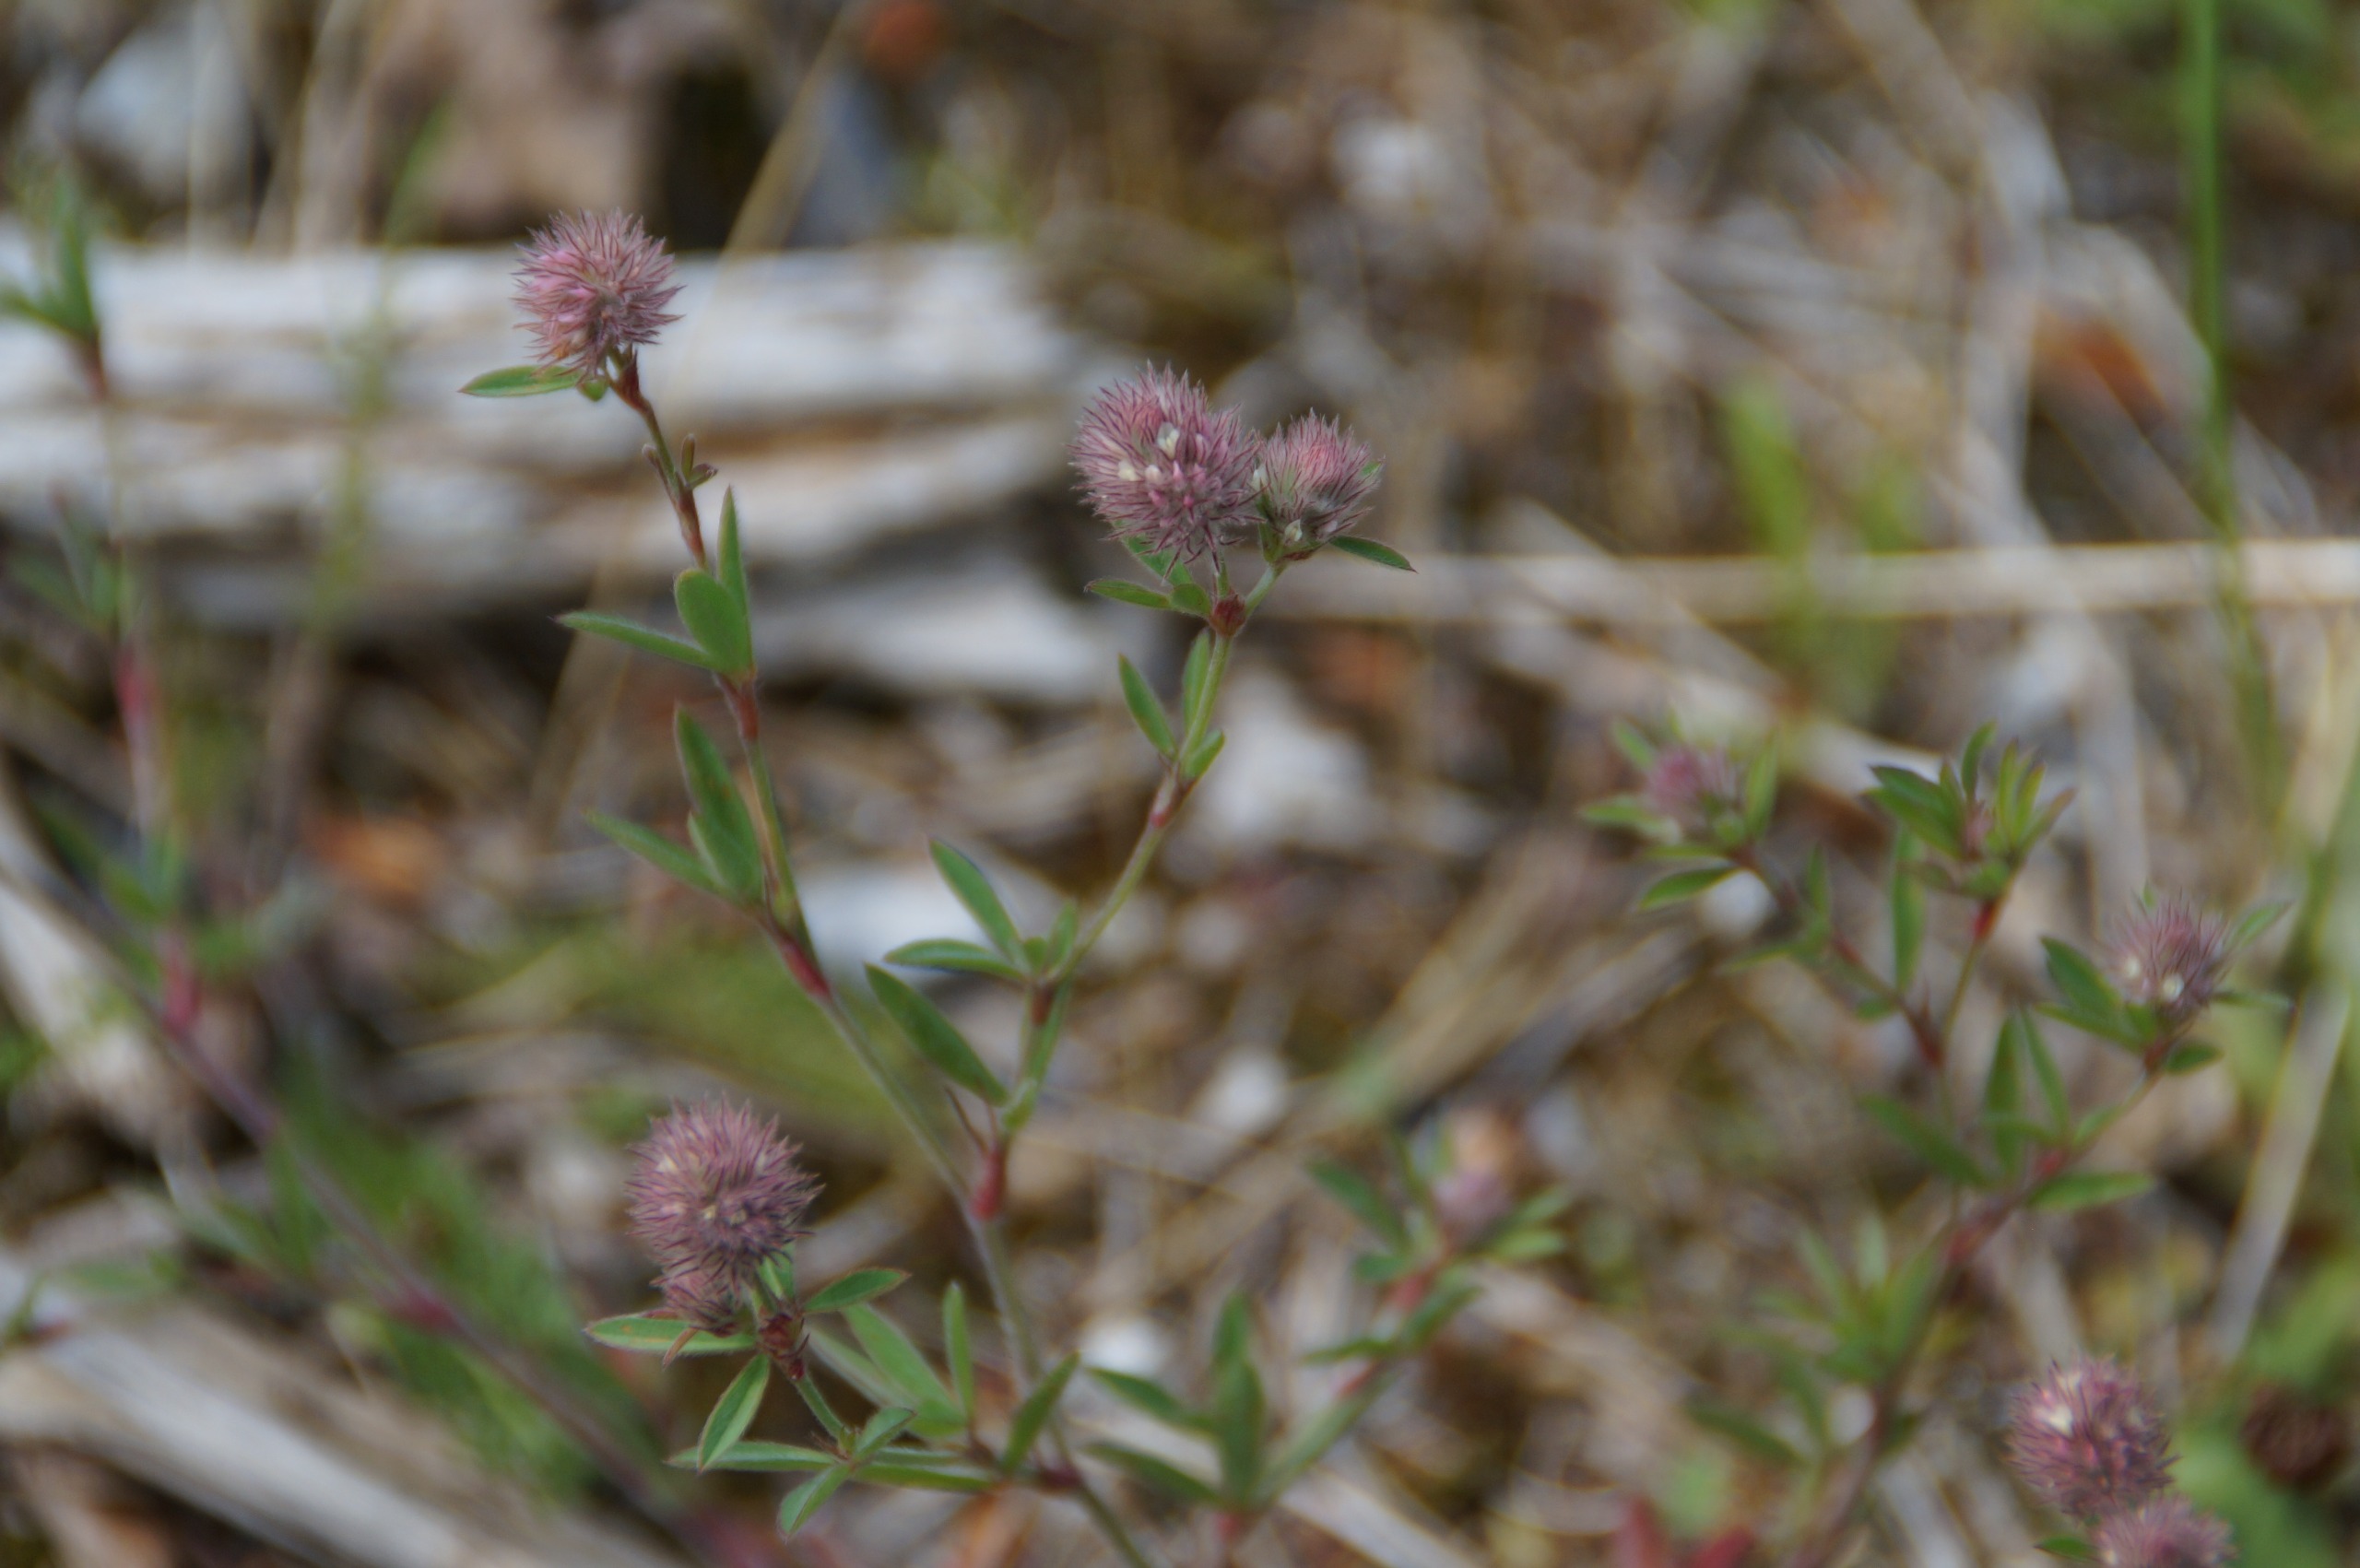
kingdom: Plantae
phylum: Tracheophyta
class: Magnoliopsida
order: Fabales
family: Fabaceae
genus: Trifolium
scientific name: Trifolium arvense
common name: Hare-kløver
